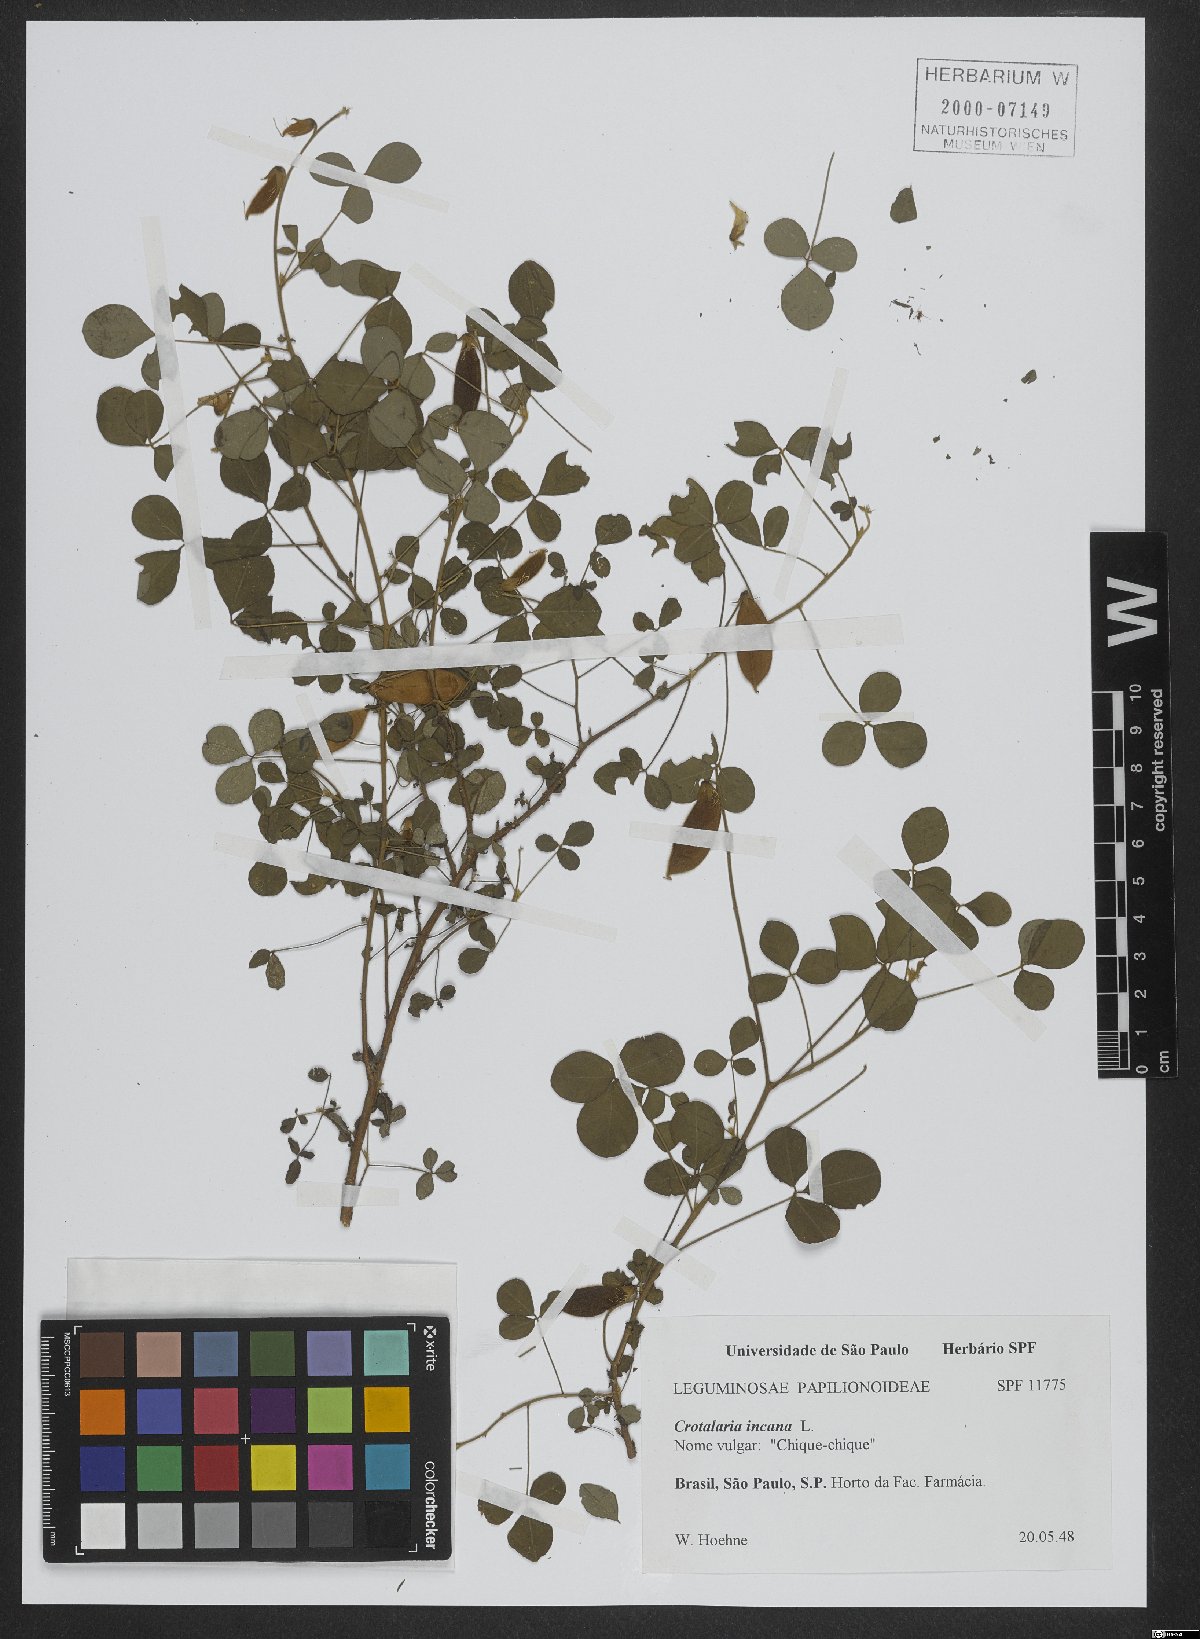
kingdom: Plantae
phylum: Tracheophyta
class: Magnoliopsida
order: Fabales
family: Fabaceae
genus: Crotalaria
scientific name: Crotalaria incana
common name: Shakeshake
